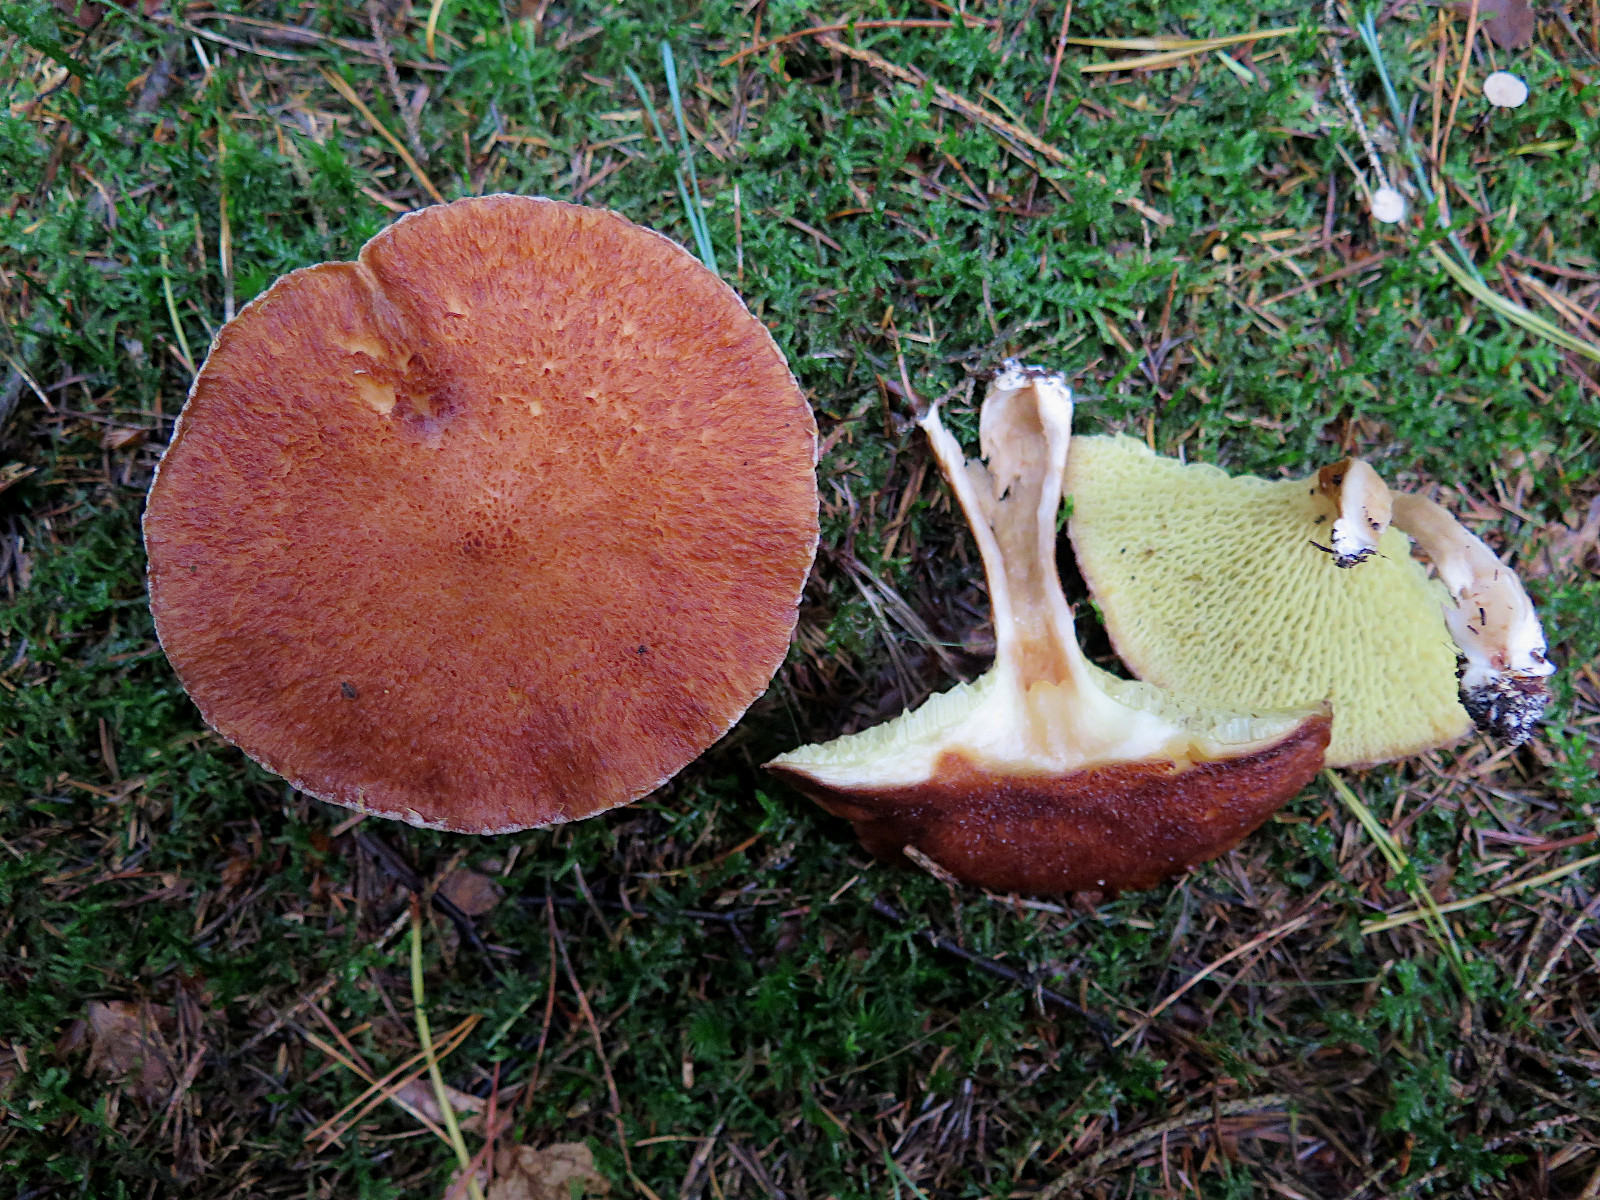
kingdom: Fungi
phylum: Basidiomycota
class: Agaricomycetes
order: Boletales
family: Suillaceae
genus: Suillus
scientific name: Suillus cavipes
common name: hulstokket slimrørhat
